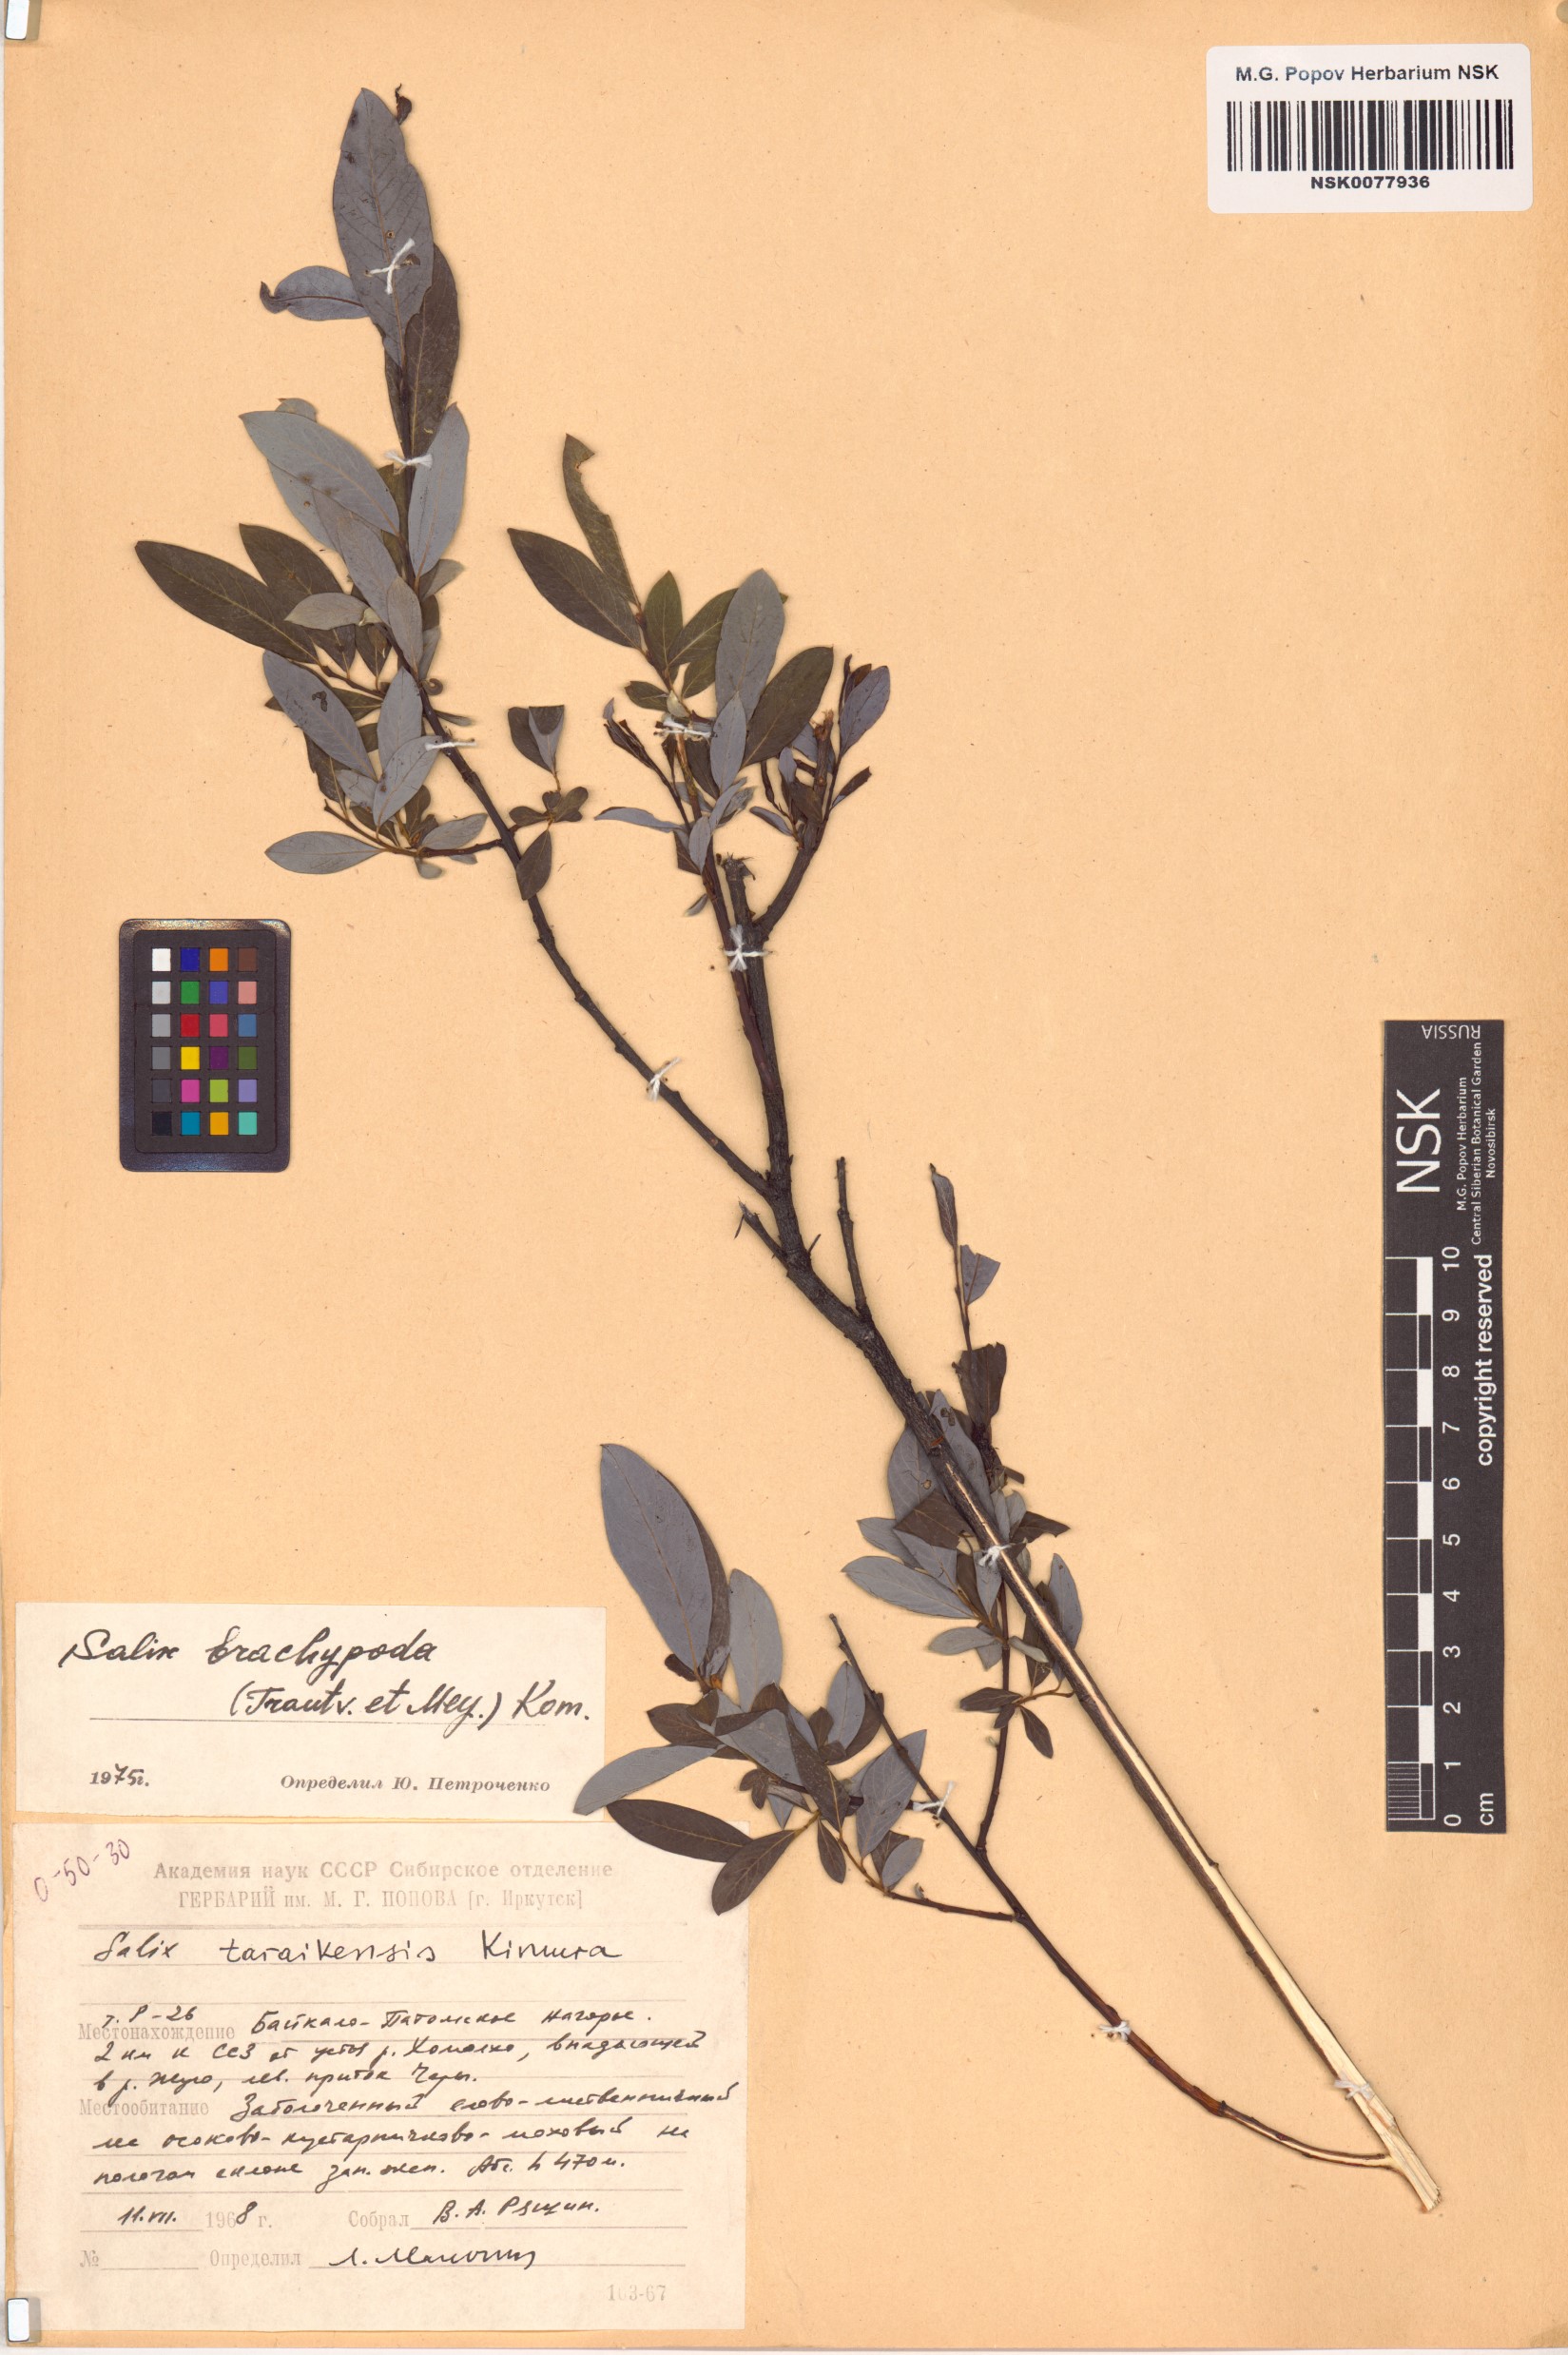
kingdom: Plantae
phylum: Tracheophyta
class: Magnoliopsida
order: Malpighiales
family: Salicaceae
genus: Salix
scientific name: Salix brachypoda
